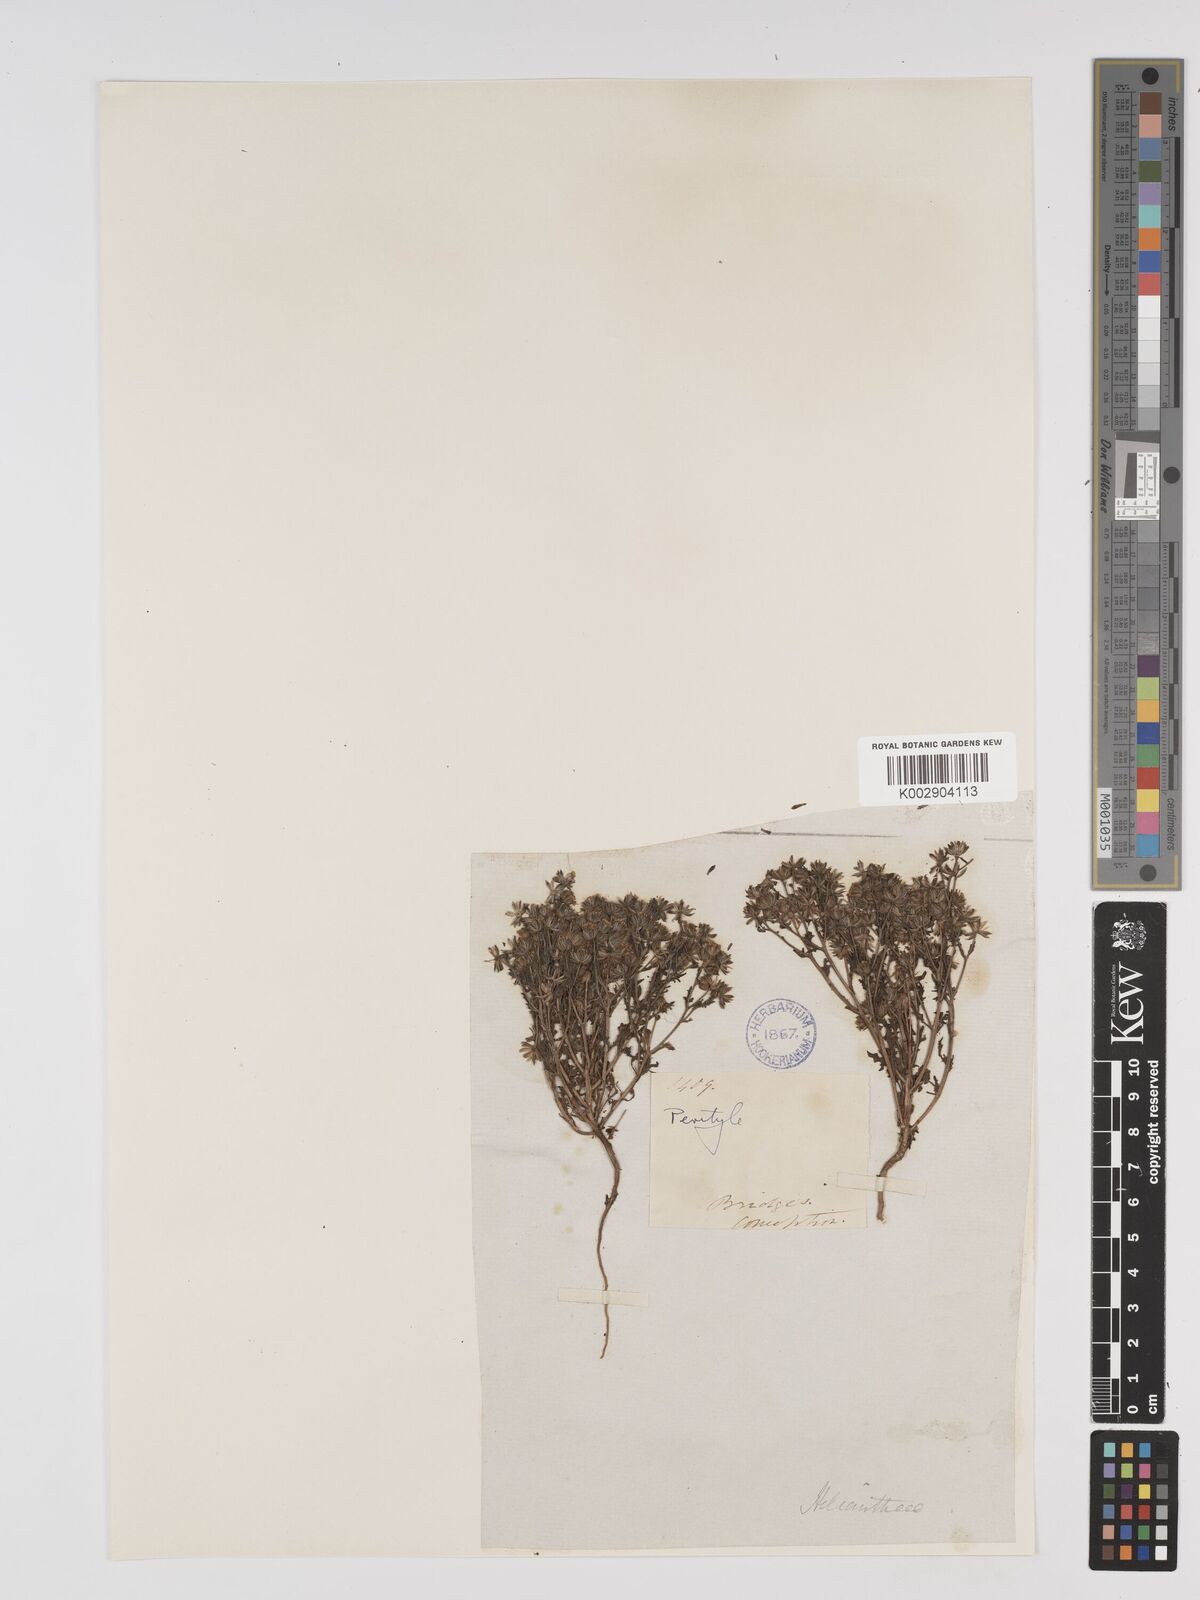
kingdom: Plantae
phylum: Tracheophyta
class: Magnoliopsida
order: Asterales
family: Asteraceae
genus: Amblyopappus
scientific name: Amblyopappus pusillus
